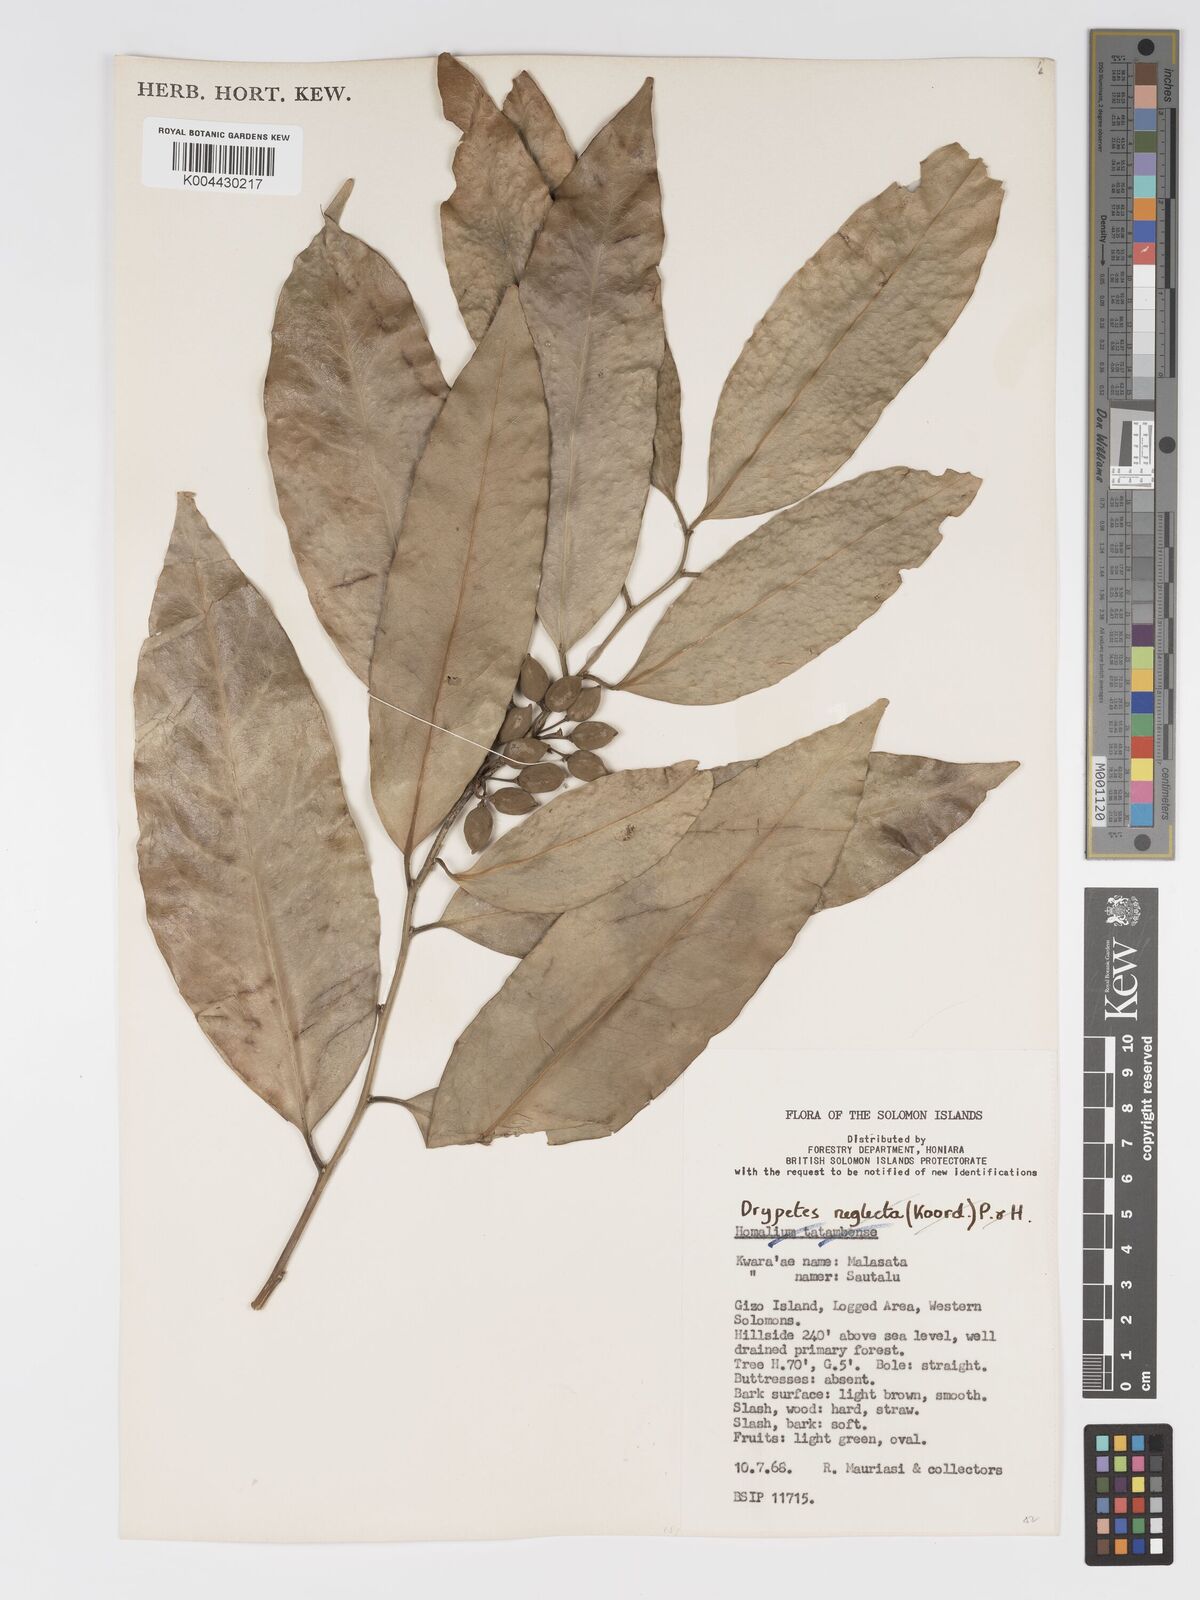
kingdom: Plantae
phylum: Tracheophyta
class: Magnoliopsida
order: Malpighiales
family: Putranjivaceae
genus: Drypetes
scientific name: Drypetes littoralis
